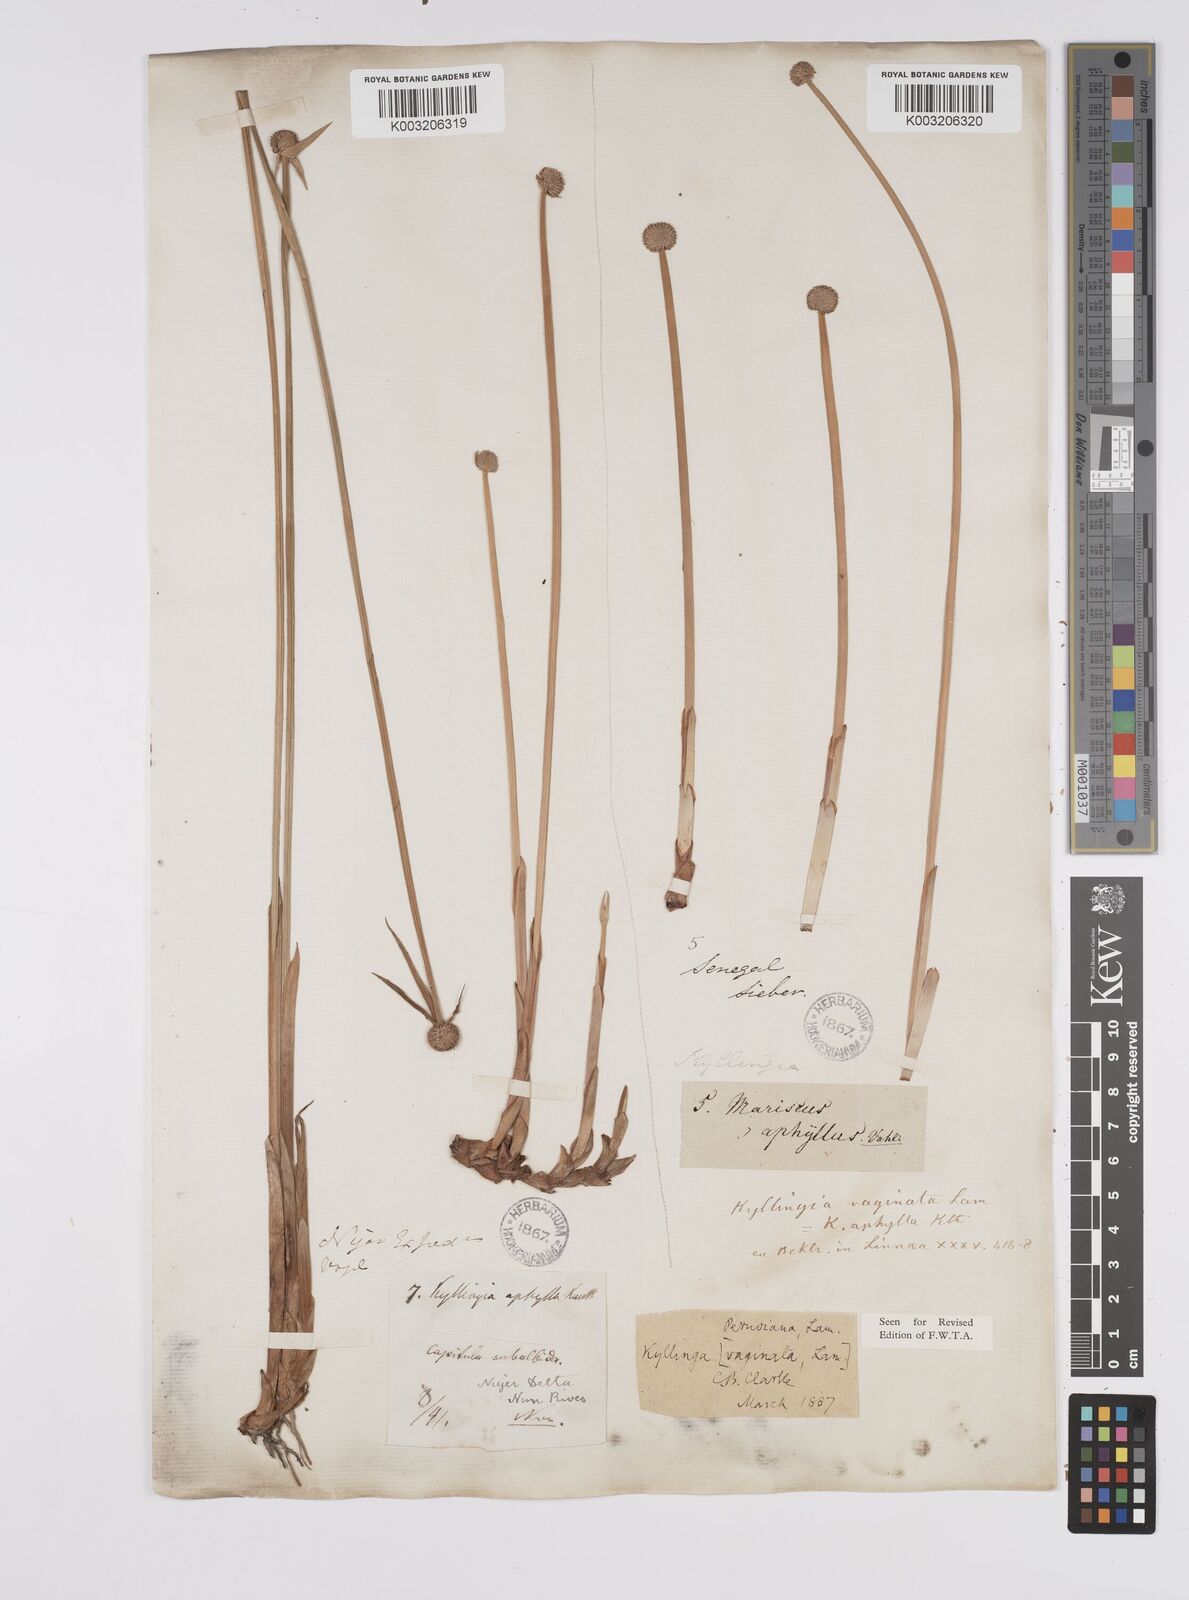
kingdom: Plantae
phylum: Tracheophyta
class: Liliopsida
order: Poales
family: Cyperaceae
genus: Cyperus
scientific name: Cyperus
